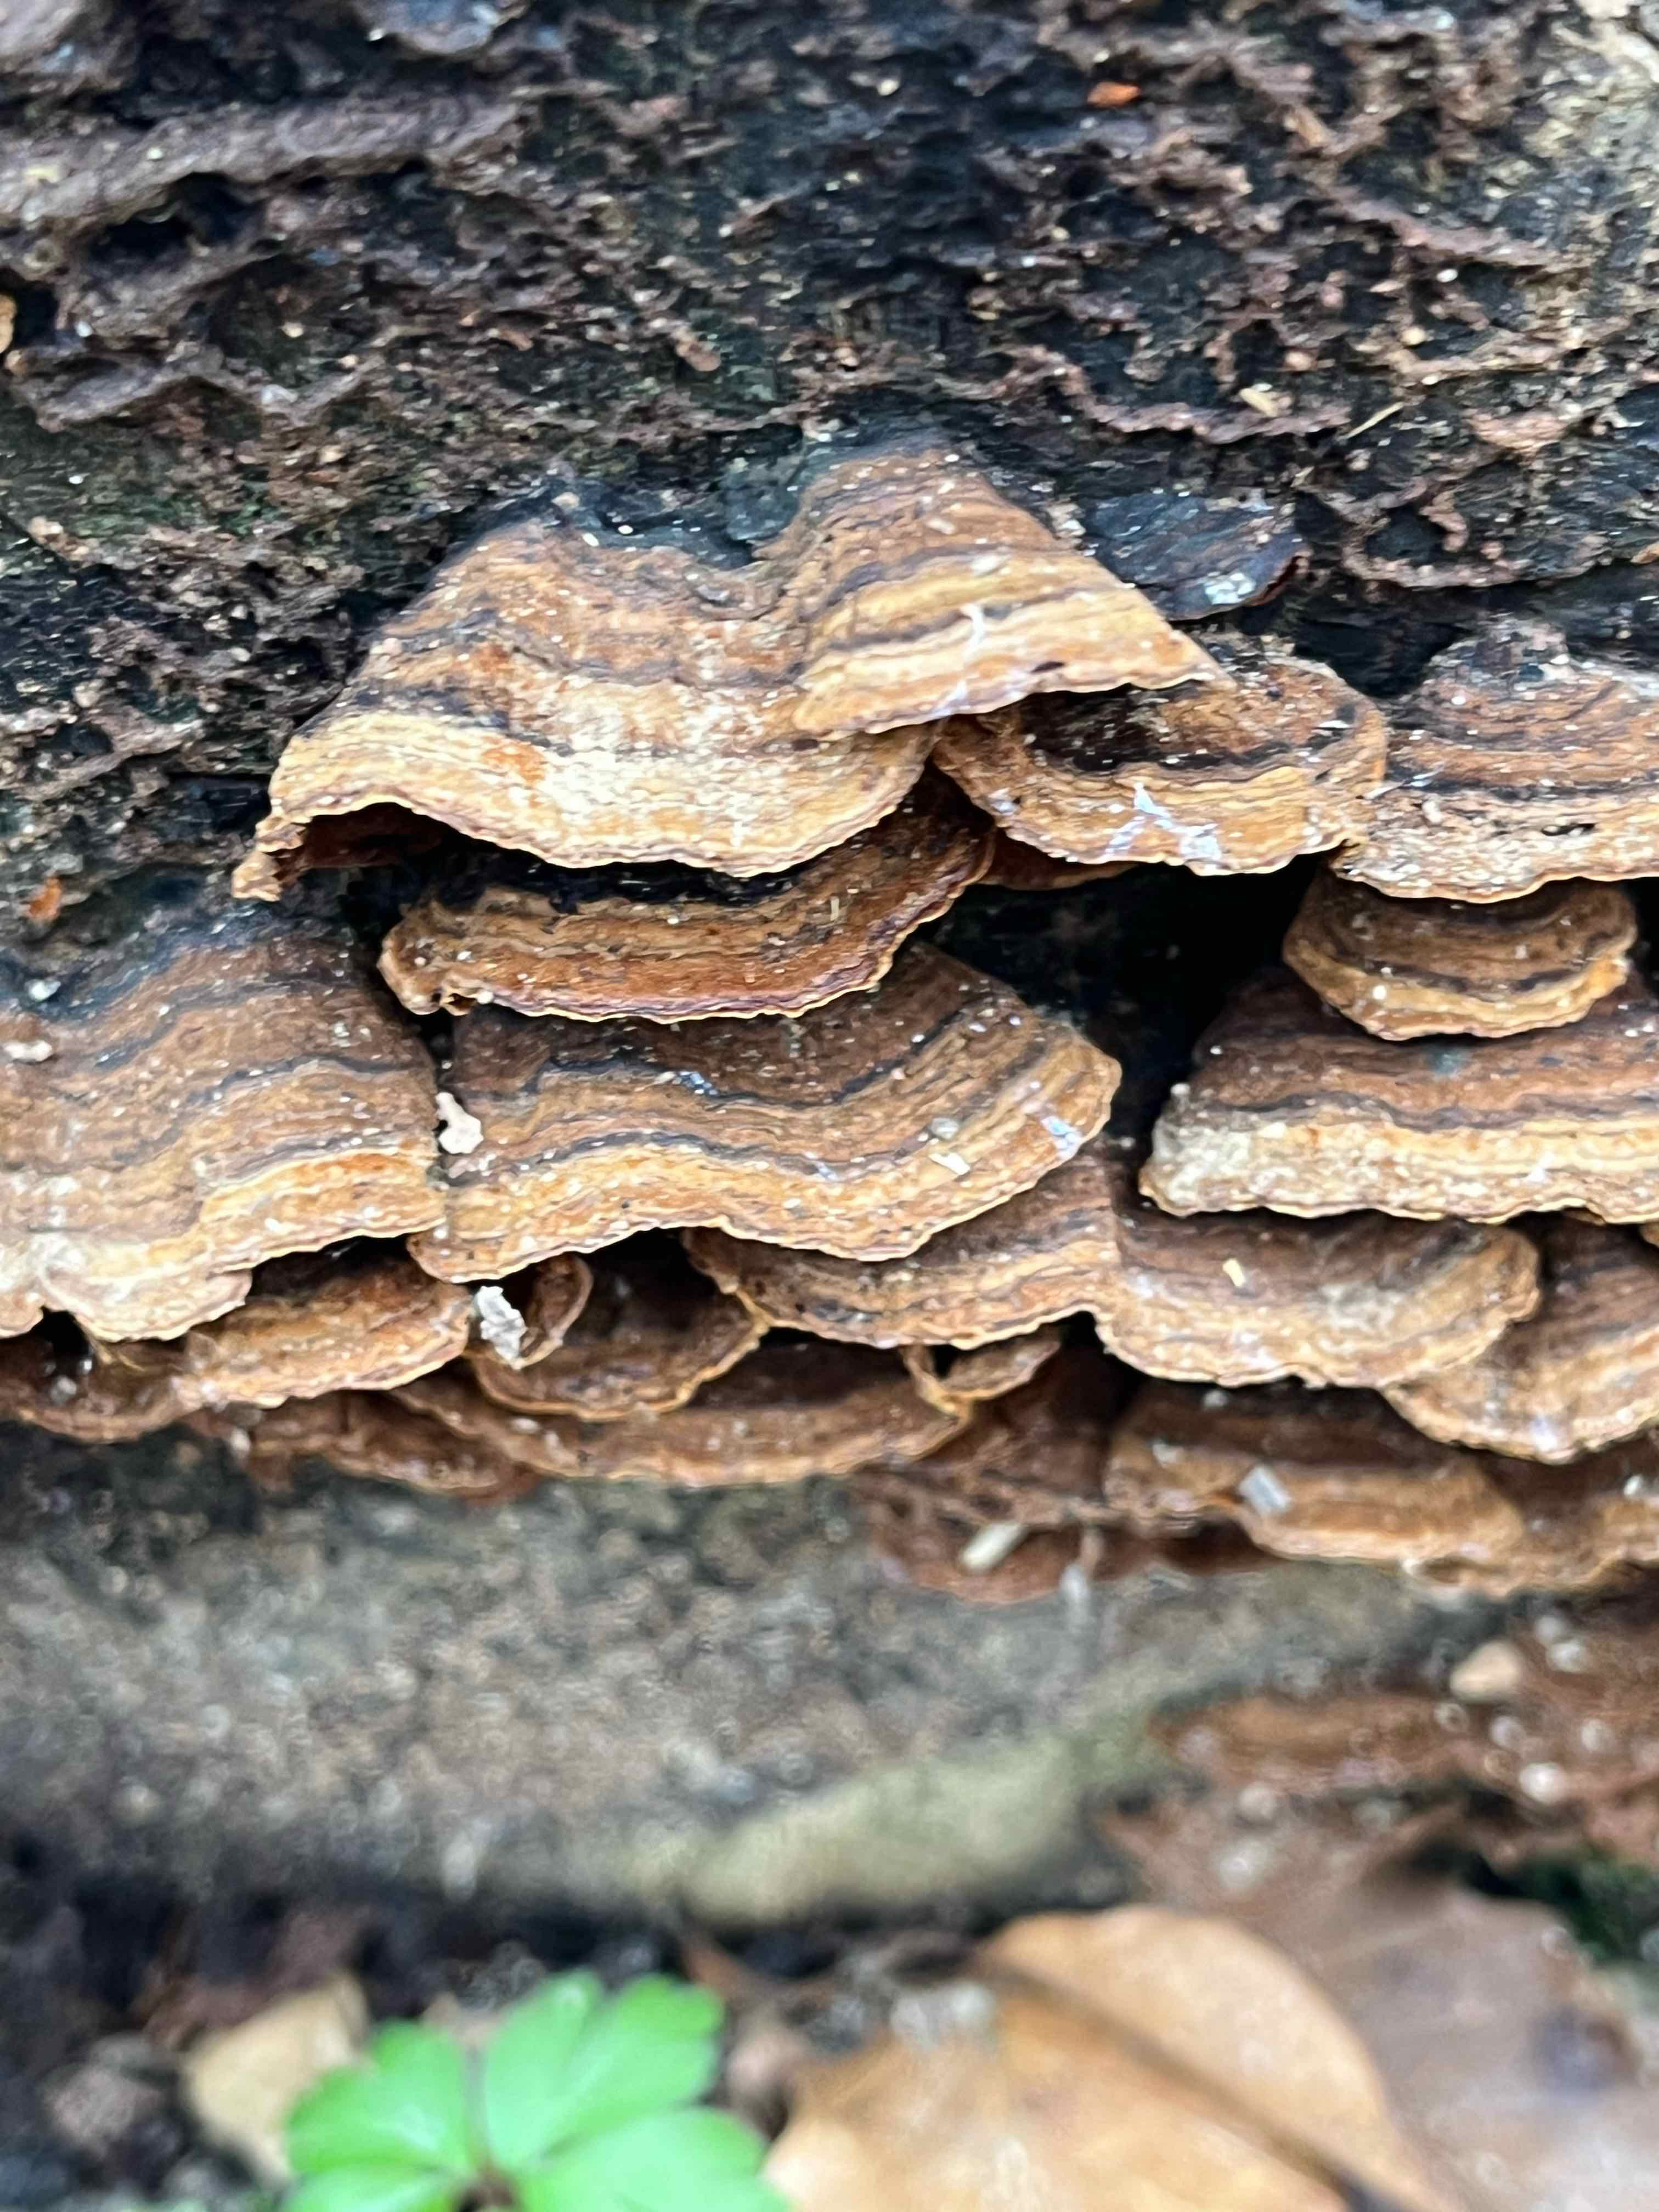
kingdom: Fungi
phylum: Basidiomycota
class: Agaricomycetes
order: Hymenochaetales
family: Hymenochaetaceae
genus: Hymenochaete
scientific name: Hymenochaete rubiginosa
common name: stiv ruslædersvamp
